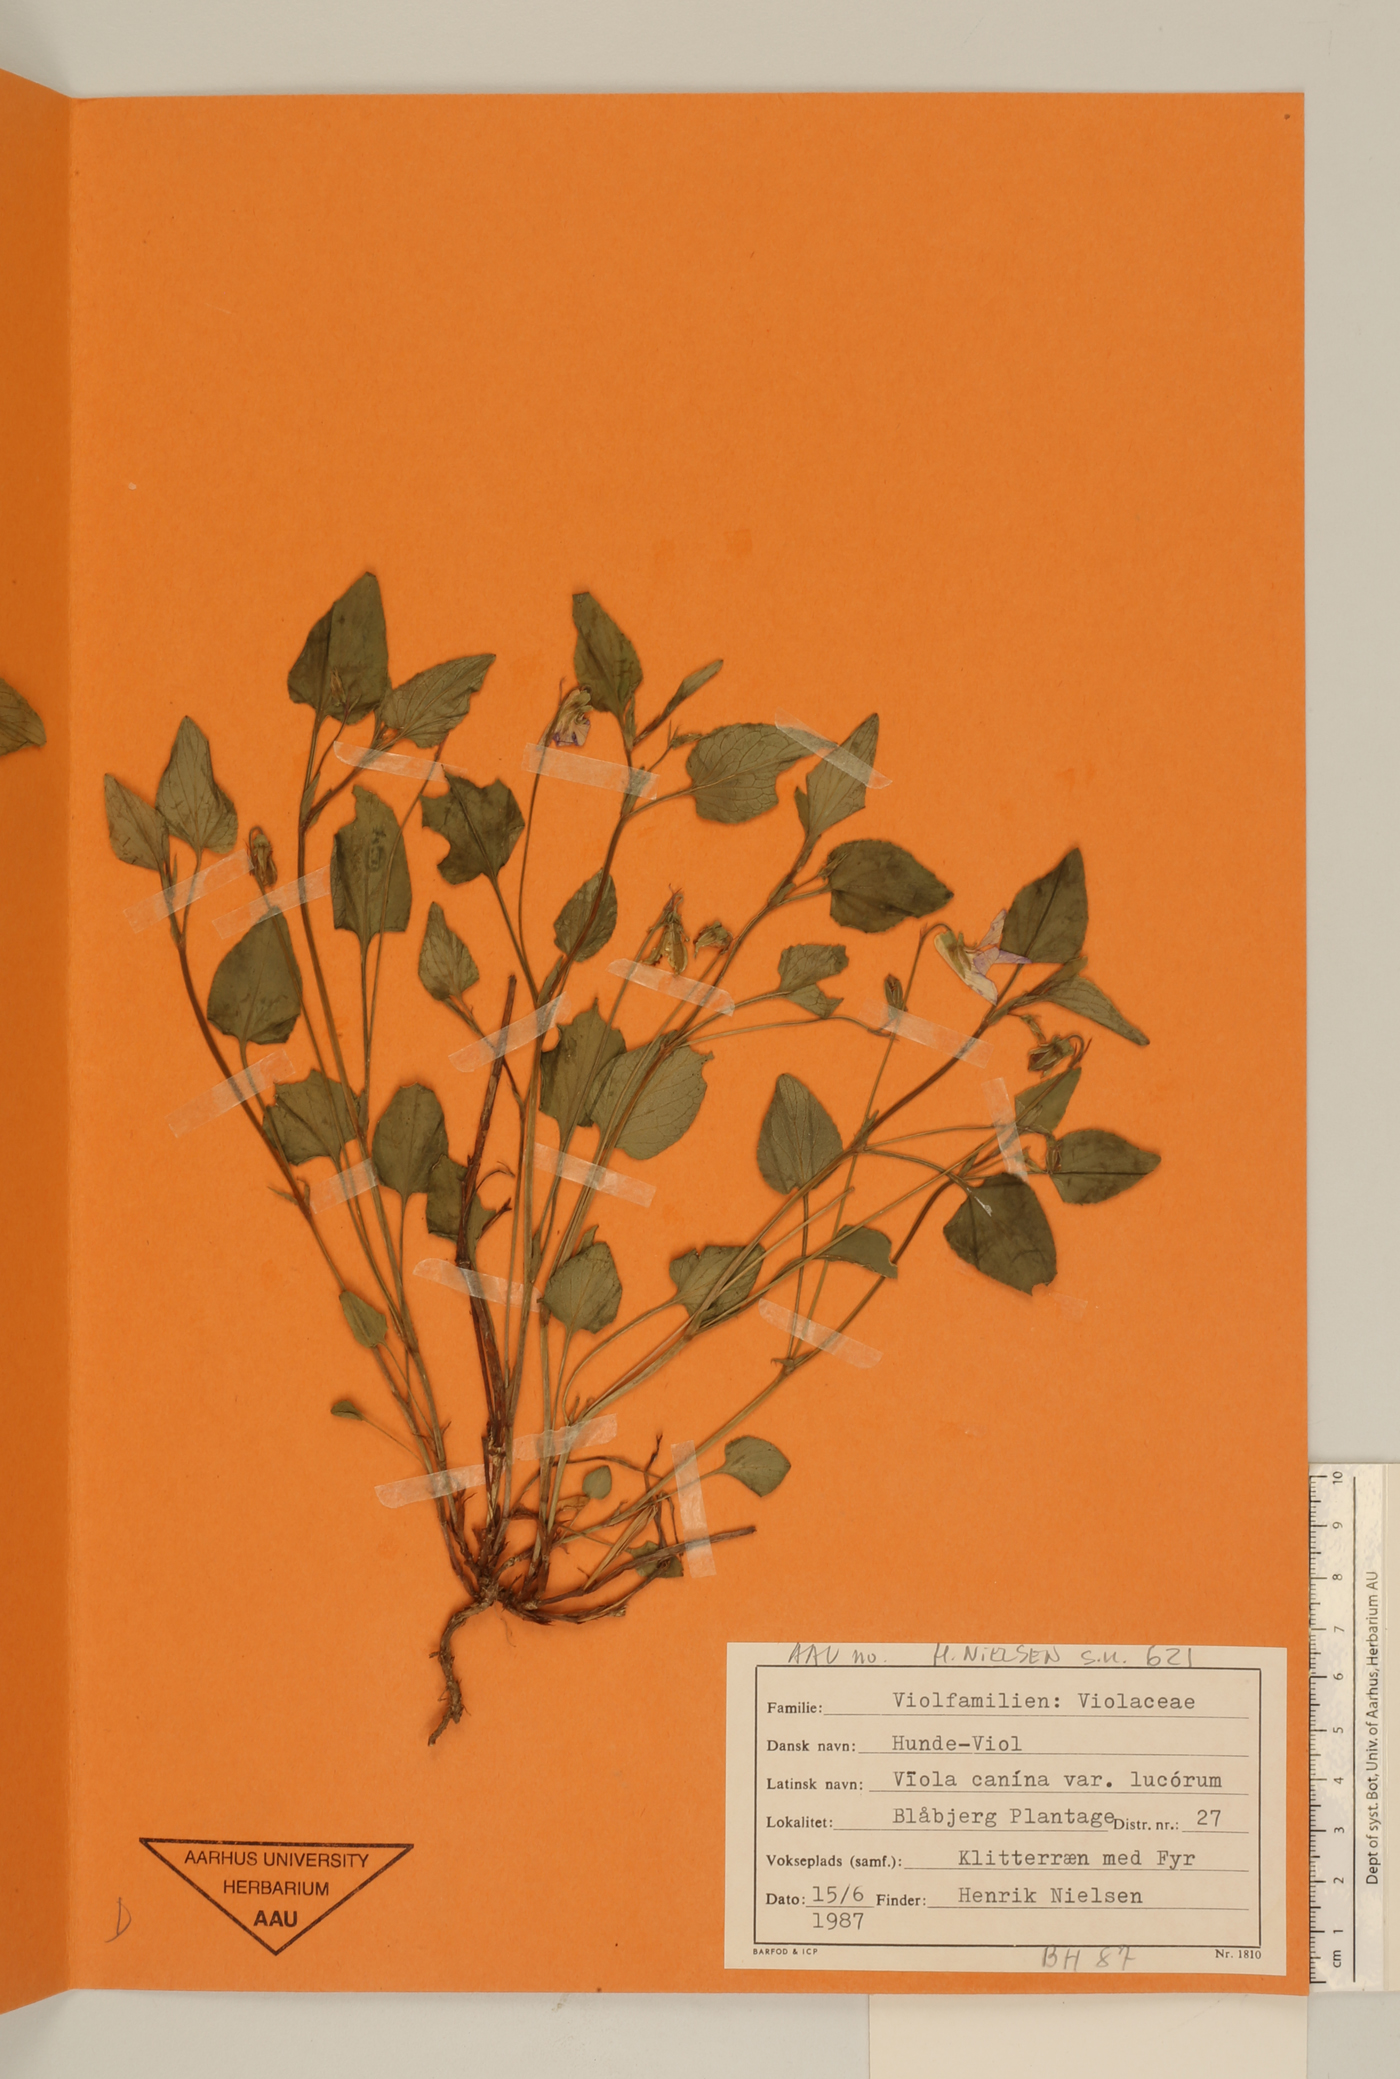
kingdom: Plantae
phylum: Tracheophyta
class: Magnoliopsida
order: Malpighiales
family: Violaceae
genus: Viola
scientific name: Viola canina
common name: Heath dog-violet
